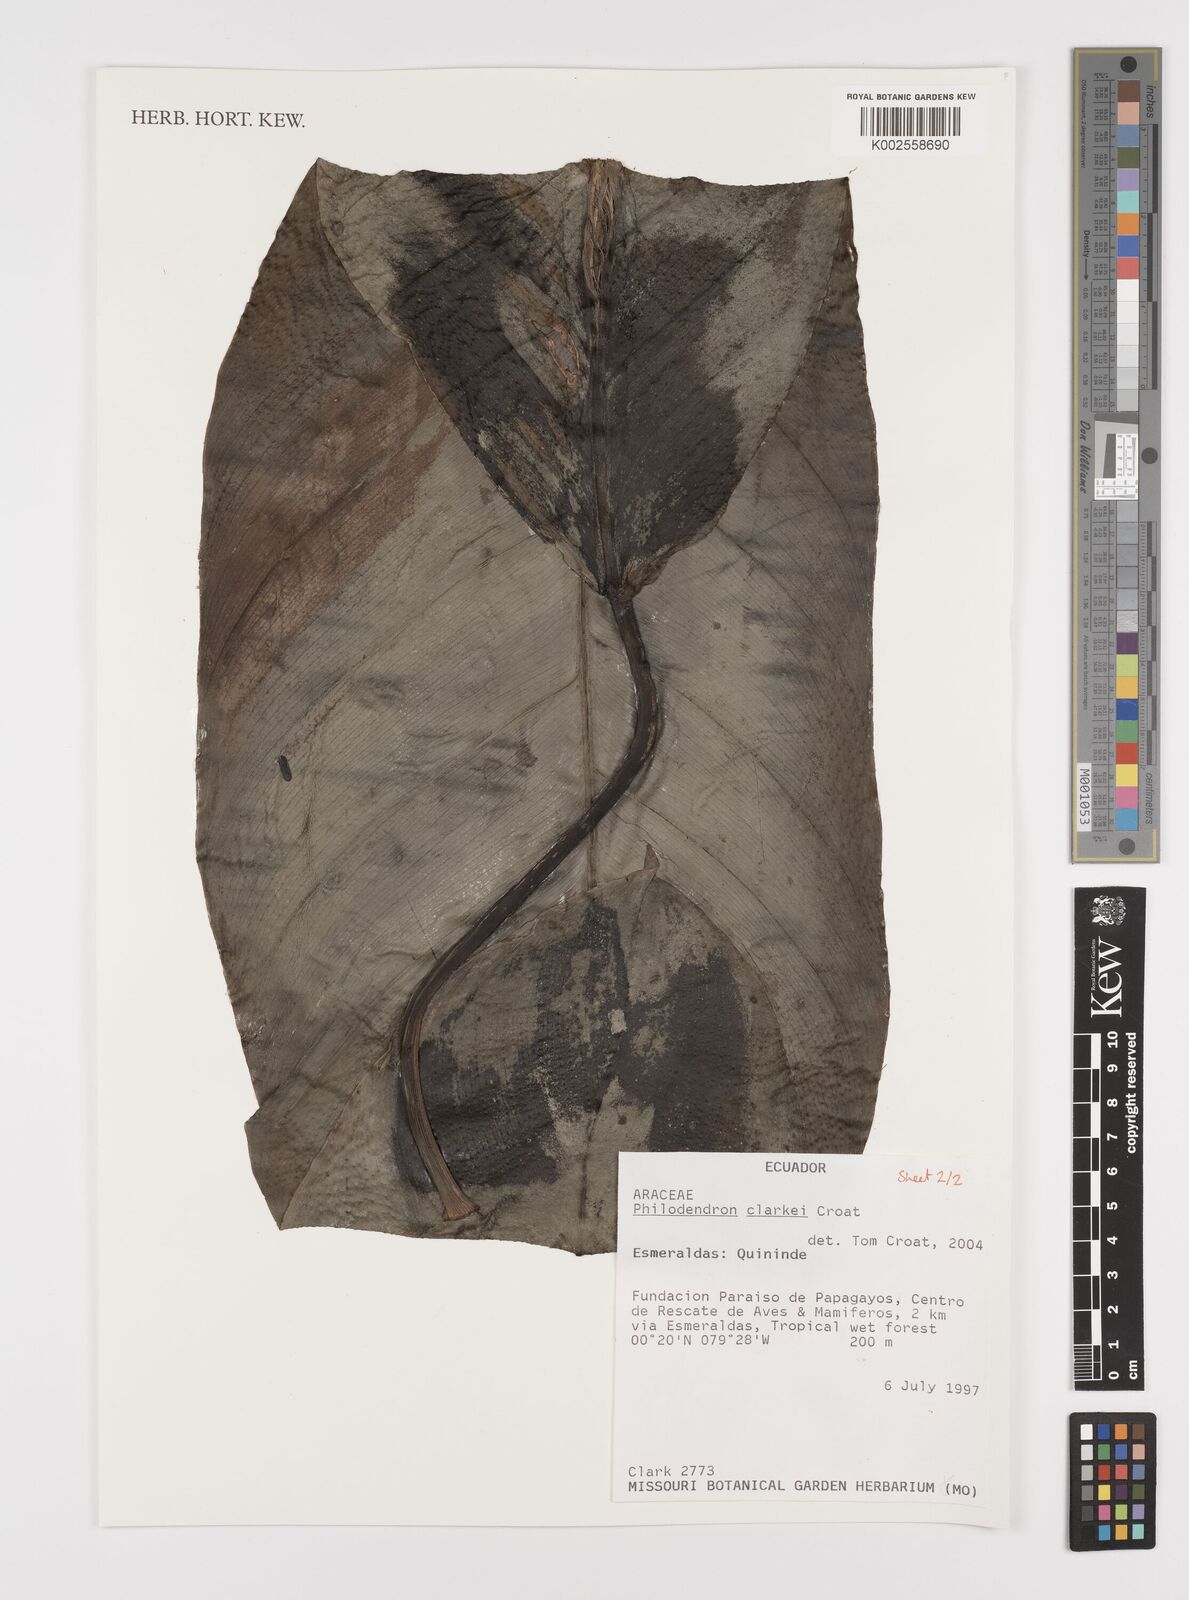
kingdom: Plantae
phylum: Tracheophyta
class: Liliopsida
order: Alismatales
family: Araceae
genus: Philodendron
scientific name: Philodendron clarkei
